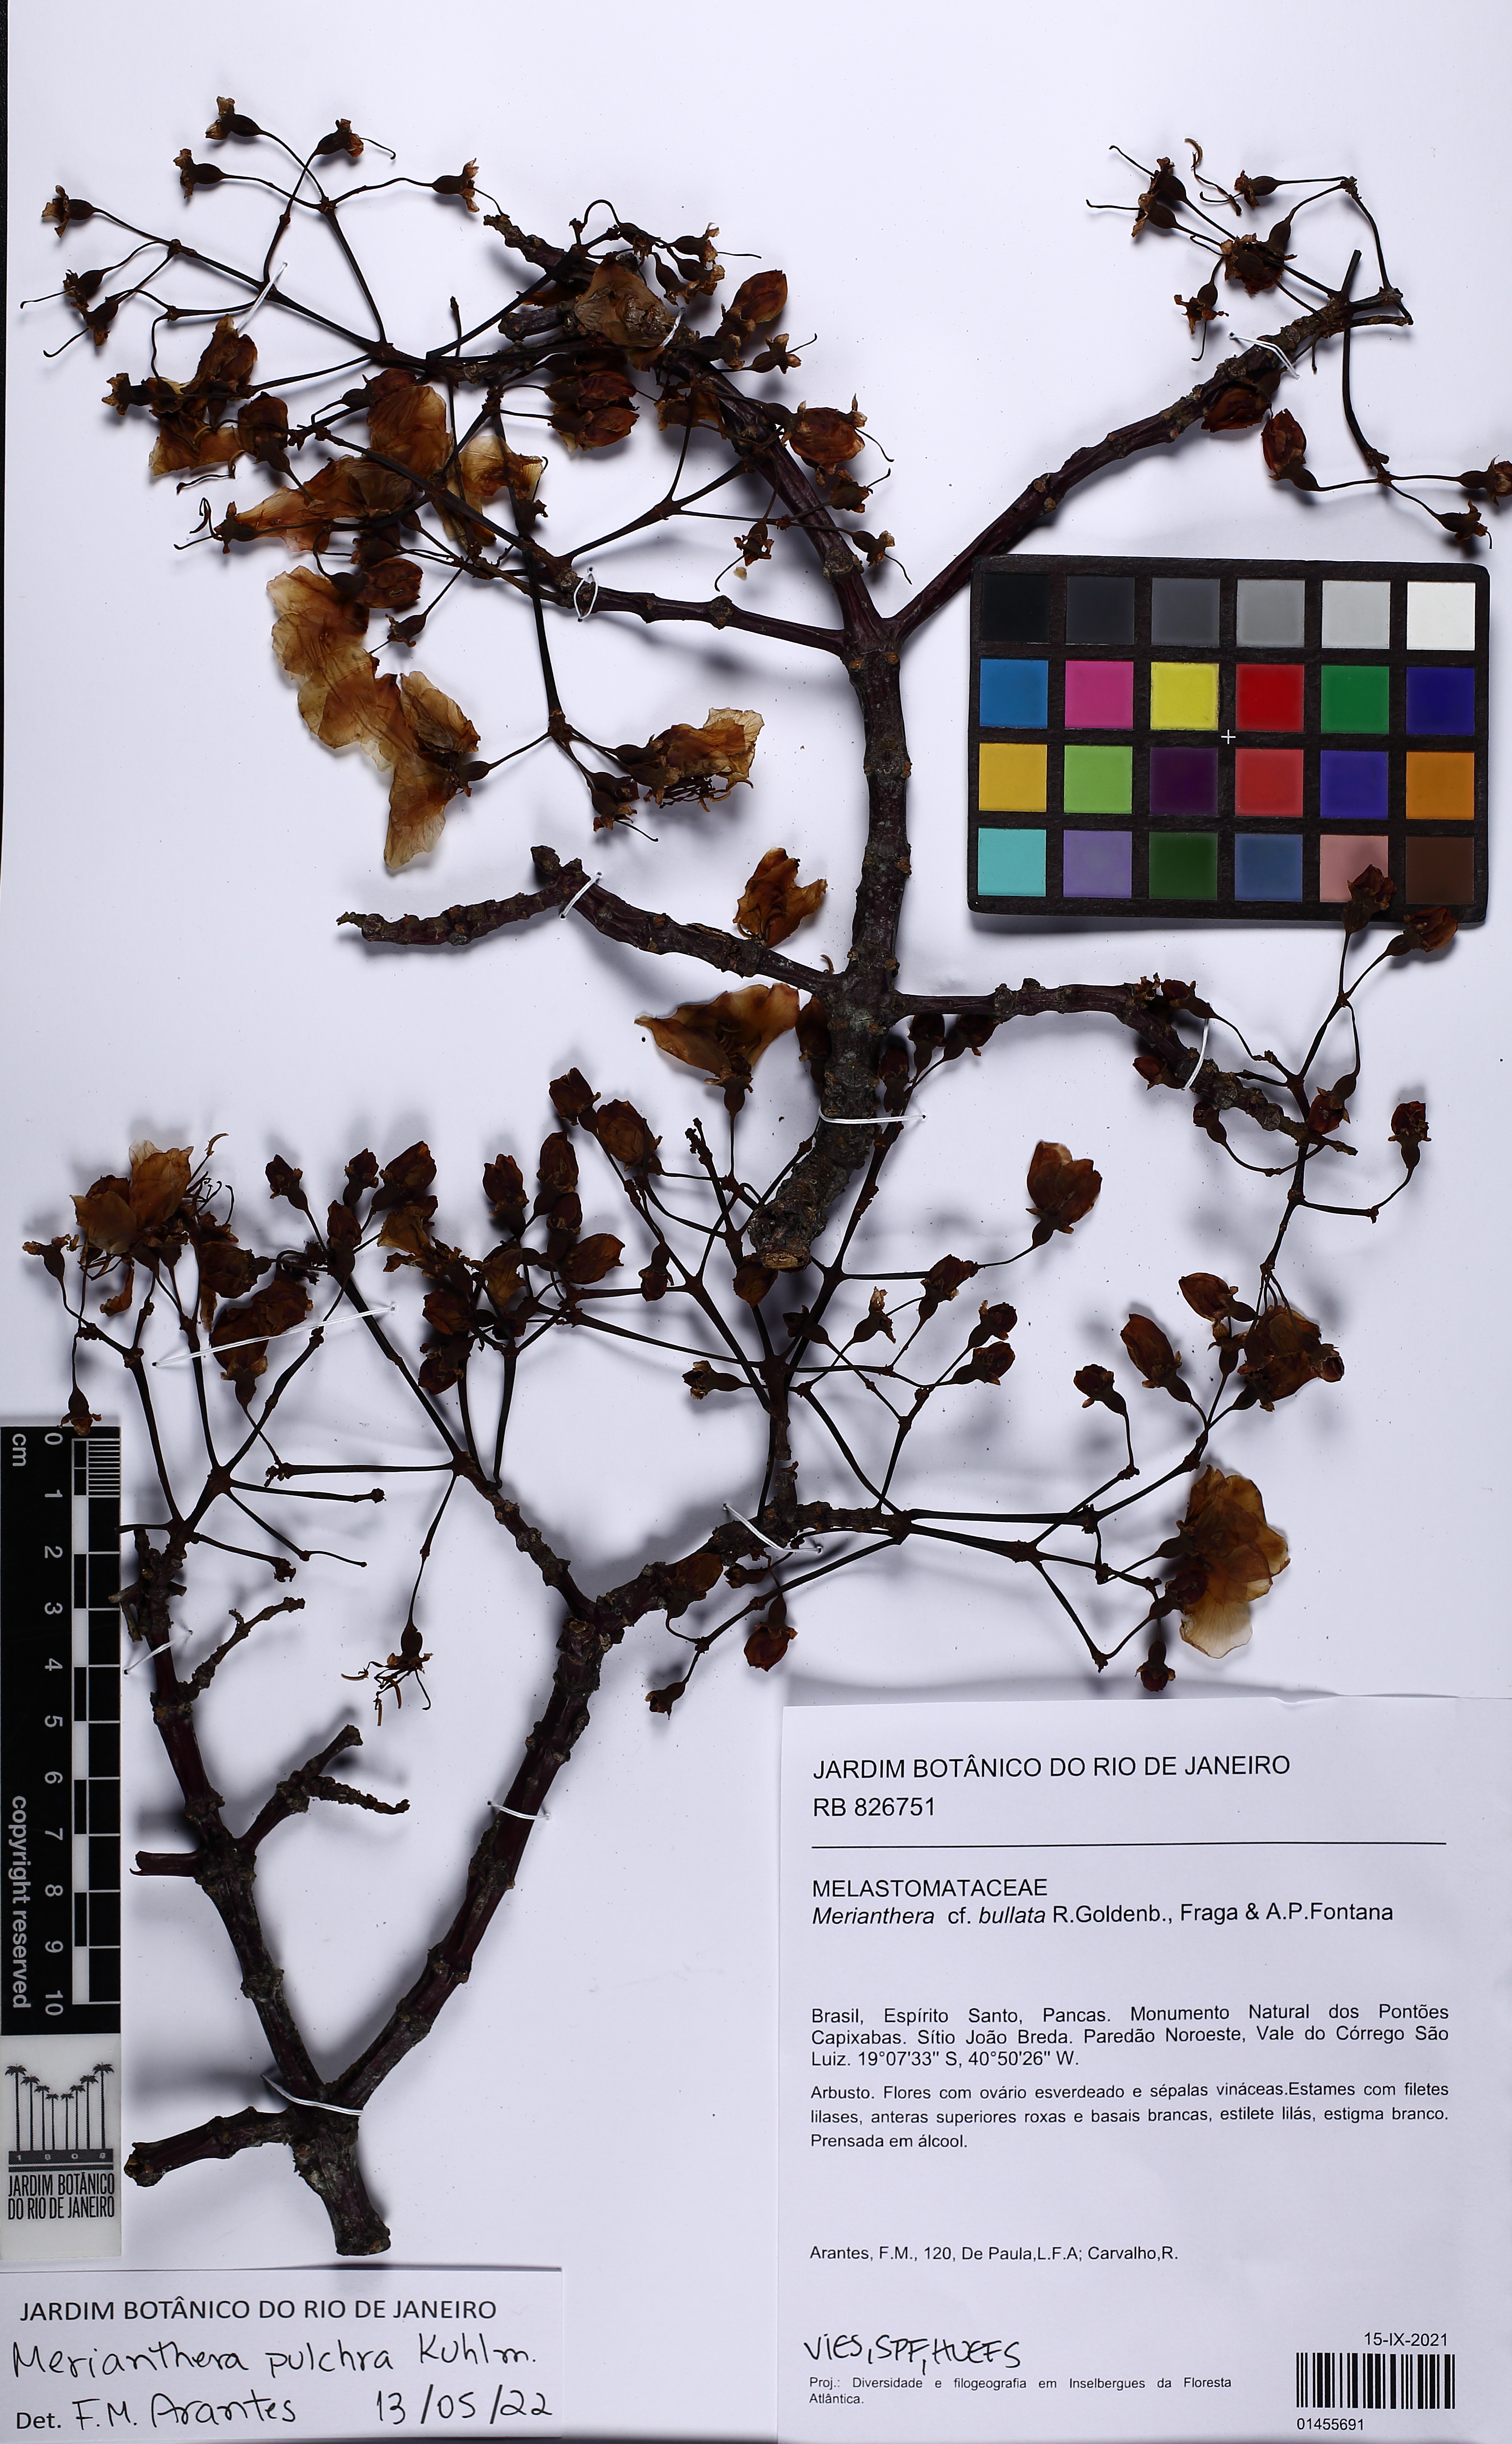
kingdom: Plantae
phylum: Tracheophyta
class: Magnoliopsida
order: Myrtales
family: Melastomataceae
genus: Merianthera
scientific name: Merianthera pulchra
